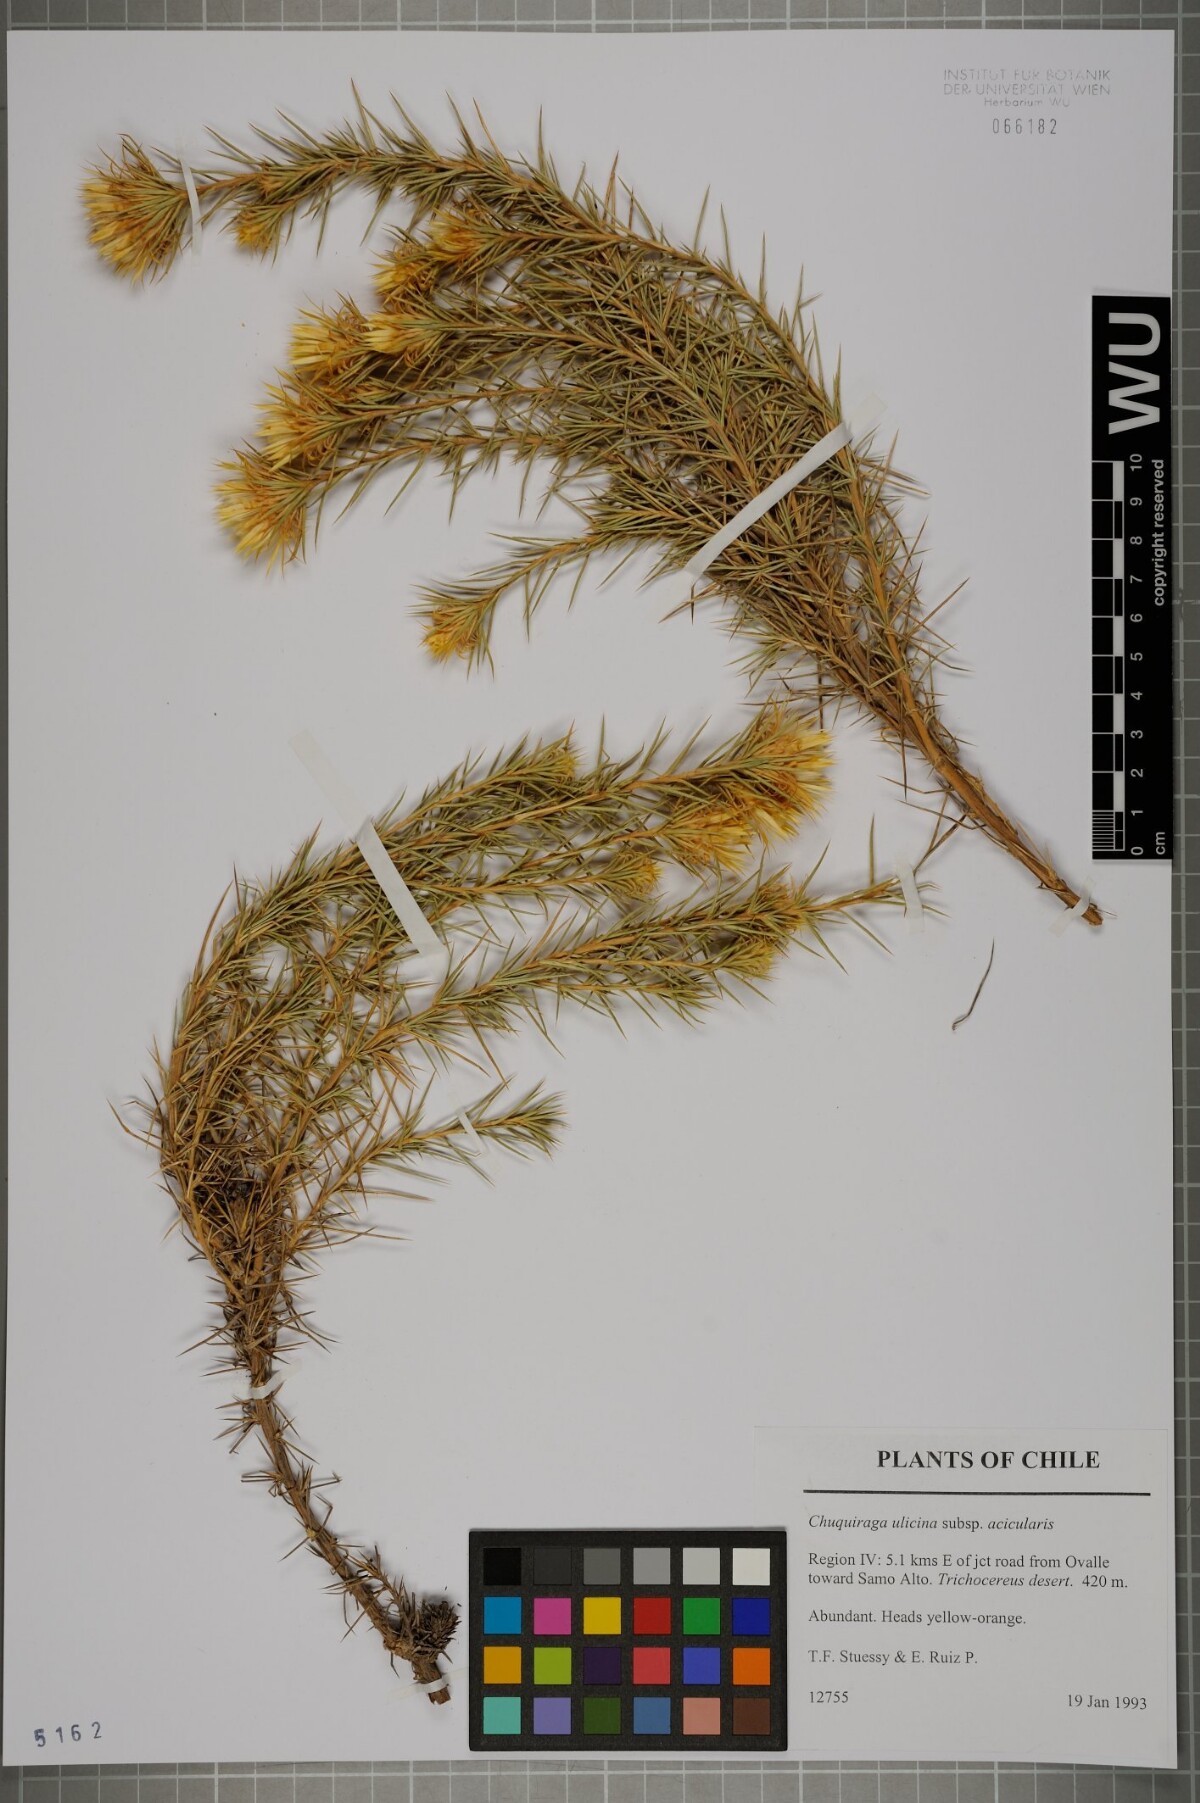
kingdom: Plantae
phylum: Tracheophyta
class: Magnoliopsida
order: Asterales
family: Asteraceae
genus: Chuquiraga
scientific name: Chuquiraga ulicina
